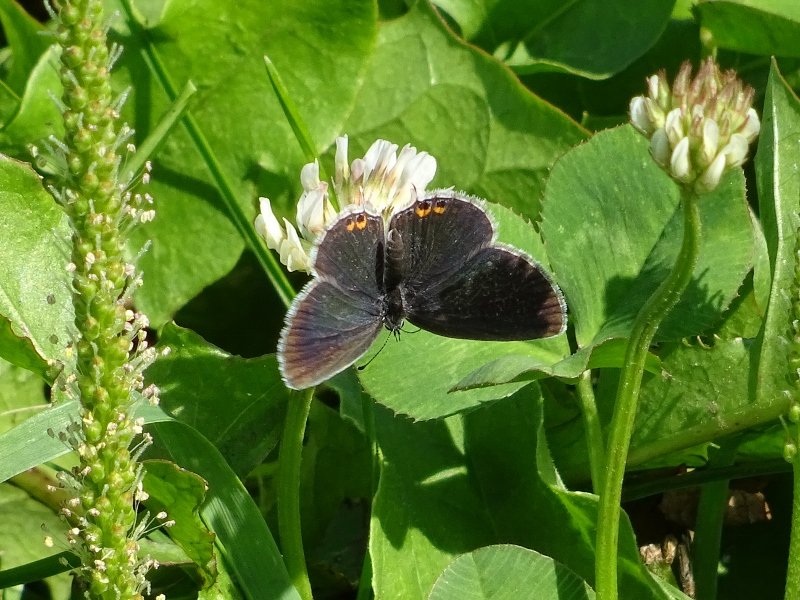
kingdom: Animalia
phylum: Arthropoda
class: Insecta
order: Lepidoptera
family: Lycaenidae
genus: Elkalyce
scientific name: Elkalyce comyntas
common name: Eastern Tailed-Blue
